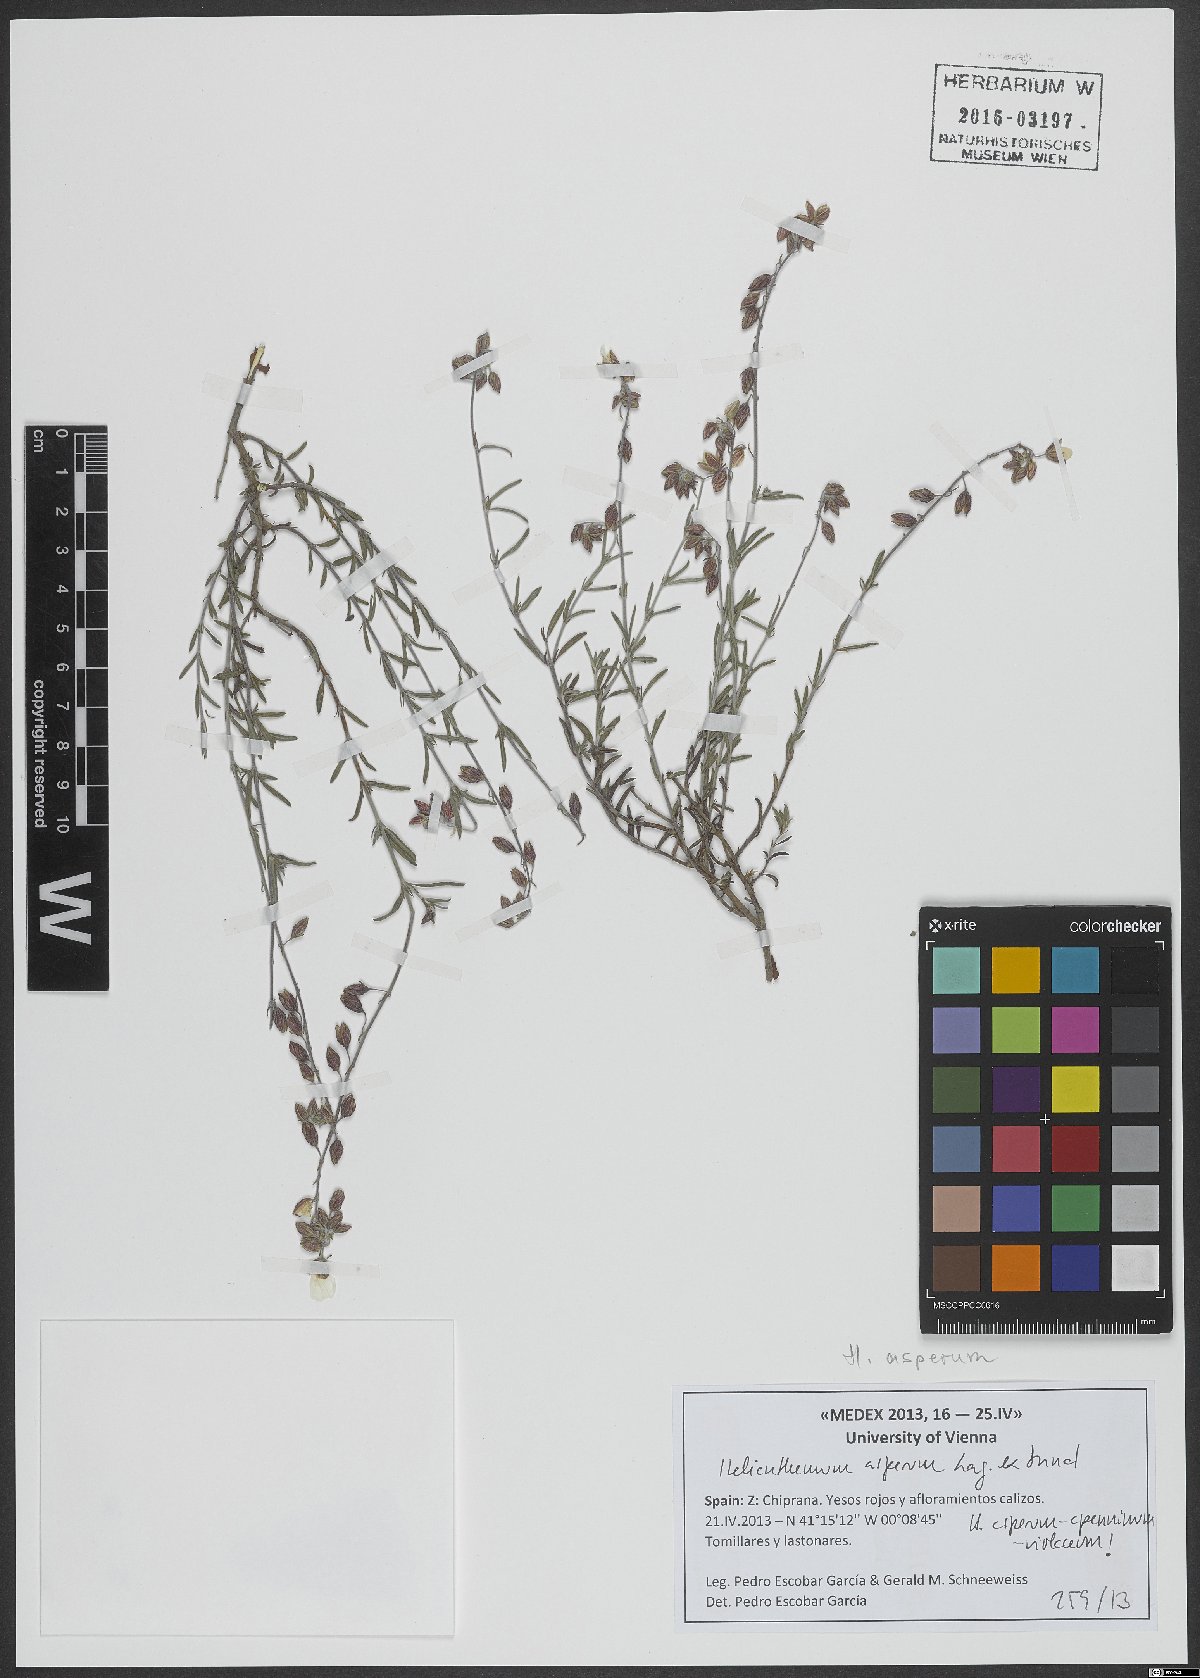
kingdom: Plantae
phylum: Tracheophyta
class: Magnoliopsida
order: Malvales
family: Cistaceae
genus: Helianthemum
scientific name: Helianthemum asperum
